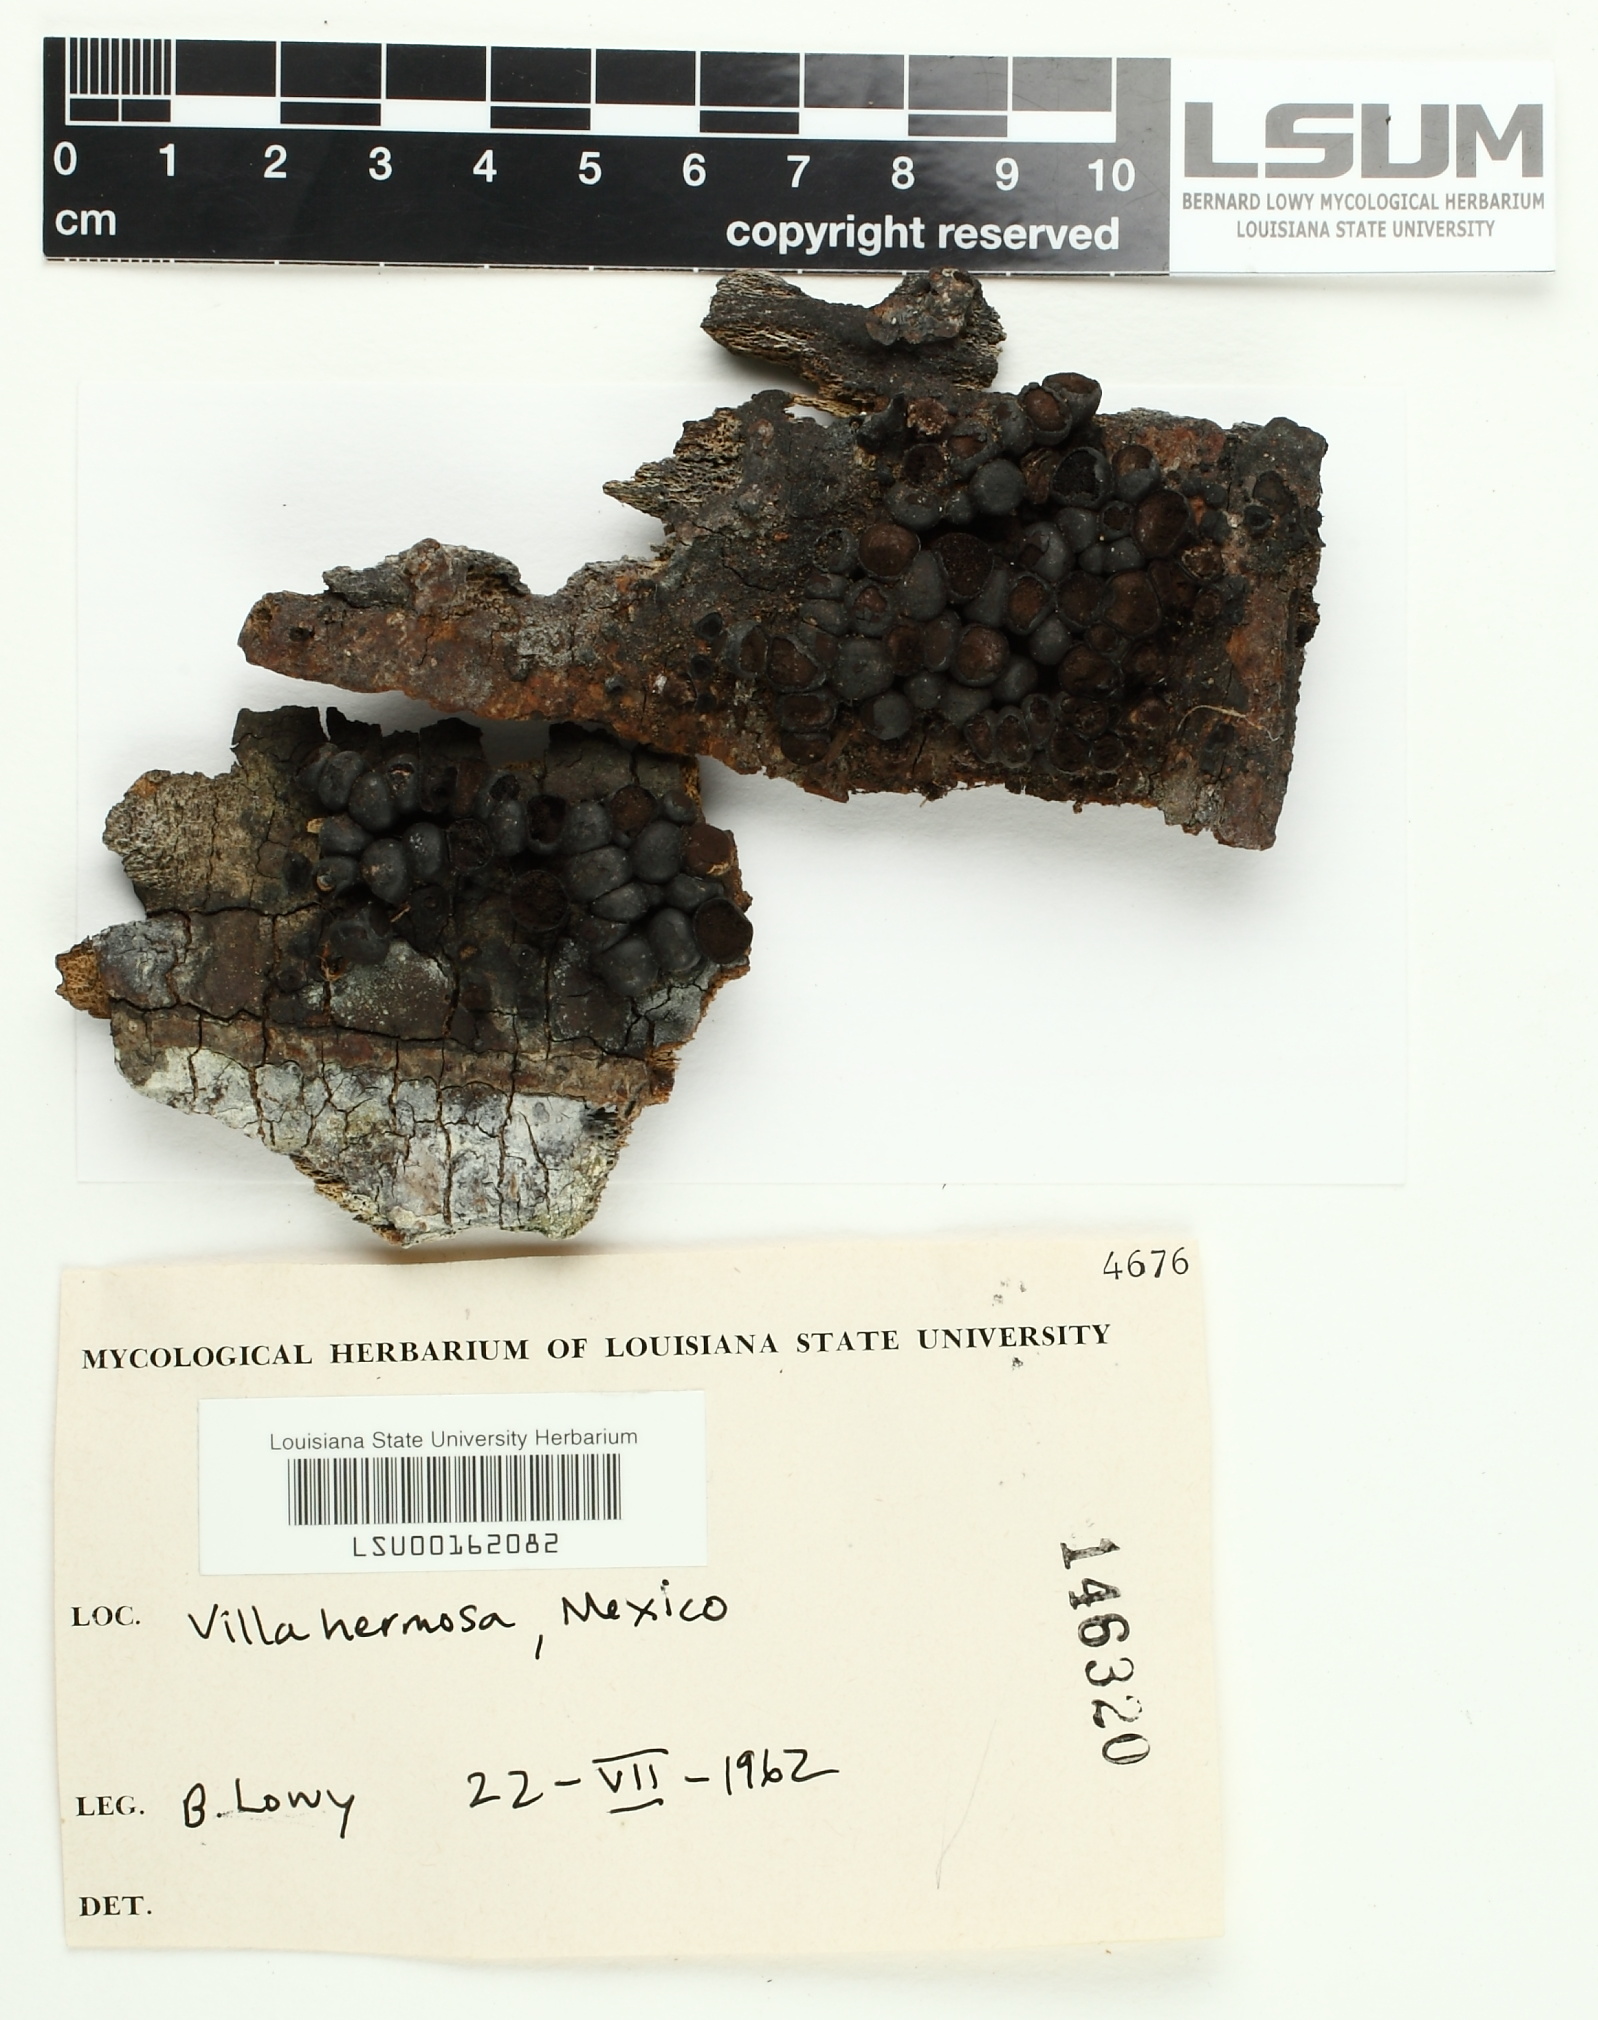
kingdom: Fungi
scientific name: Fungi
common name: Fungi
